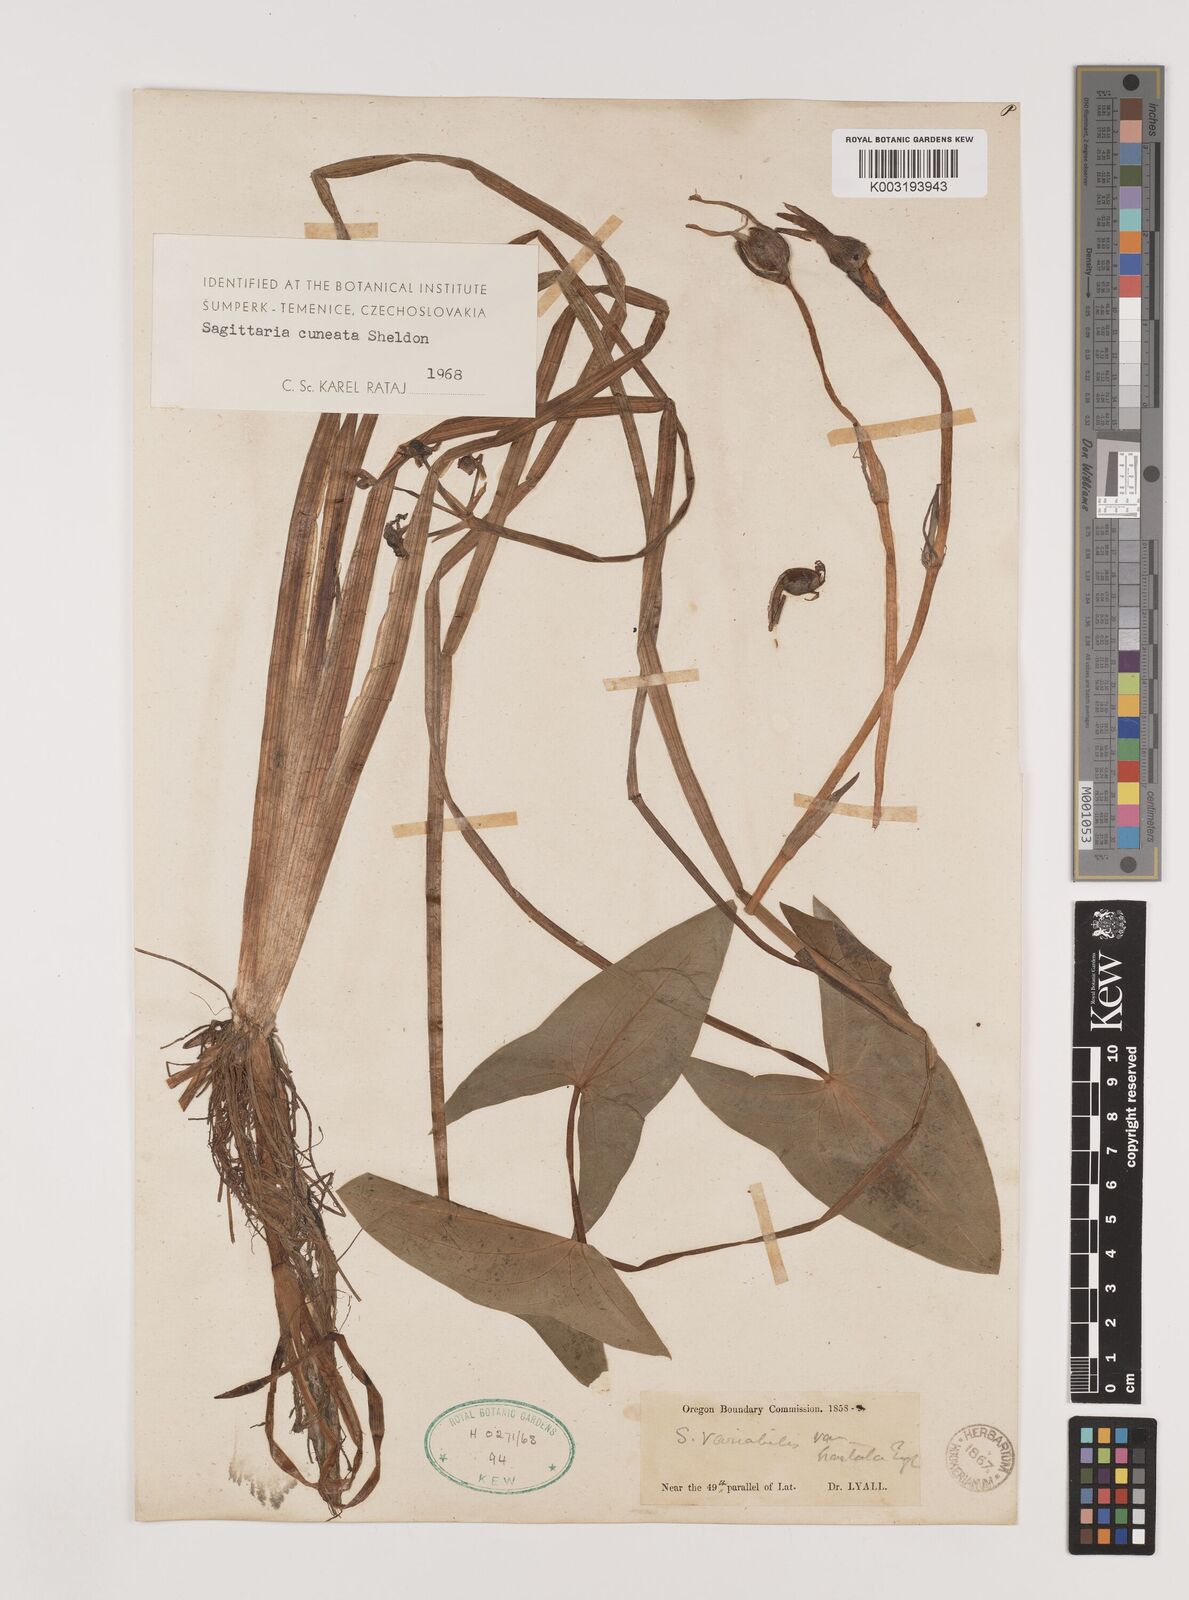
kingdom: Plantae
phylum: Tracheophyta
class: Liliopsida
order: Alismatales
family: Alismataceae
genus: Sagittaria
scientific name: Sagittaria cuneata
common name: Northern arrowhead
